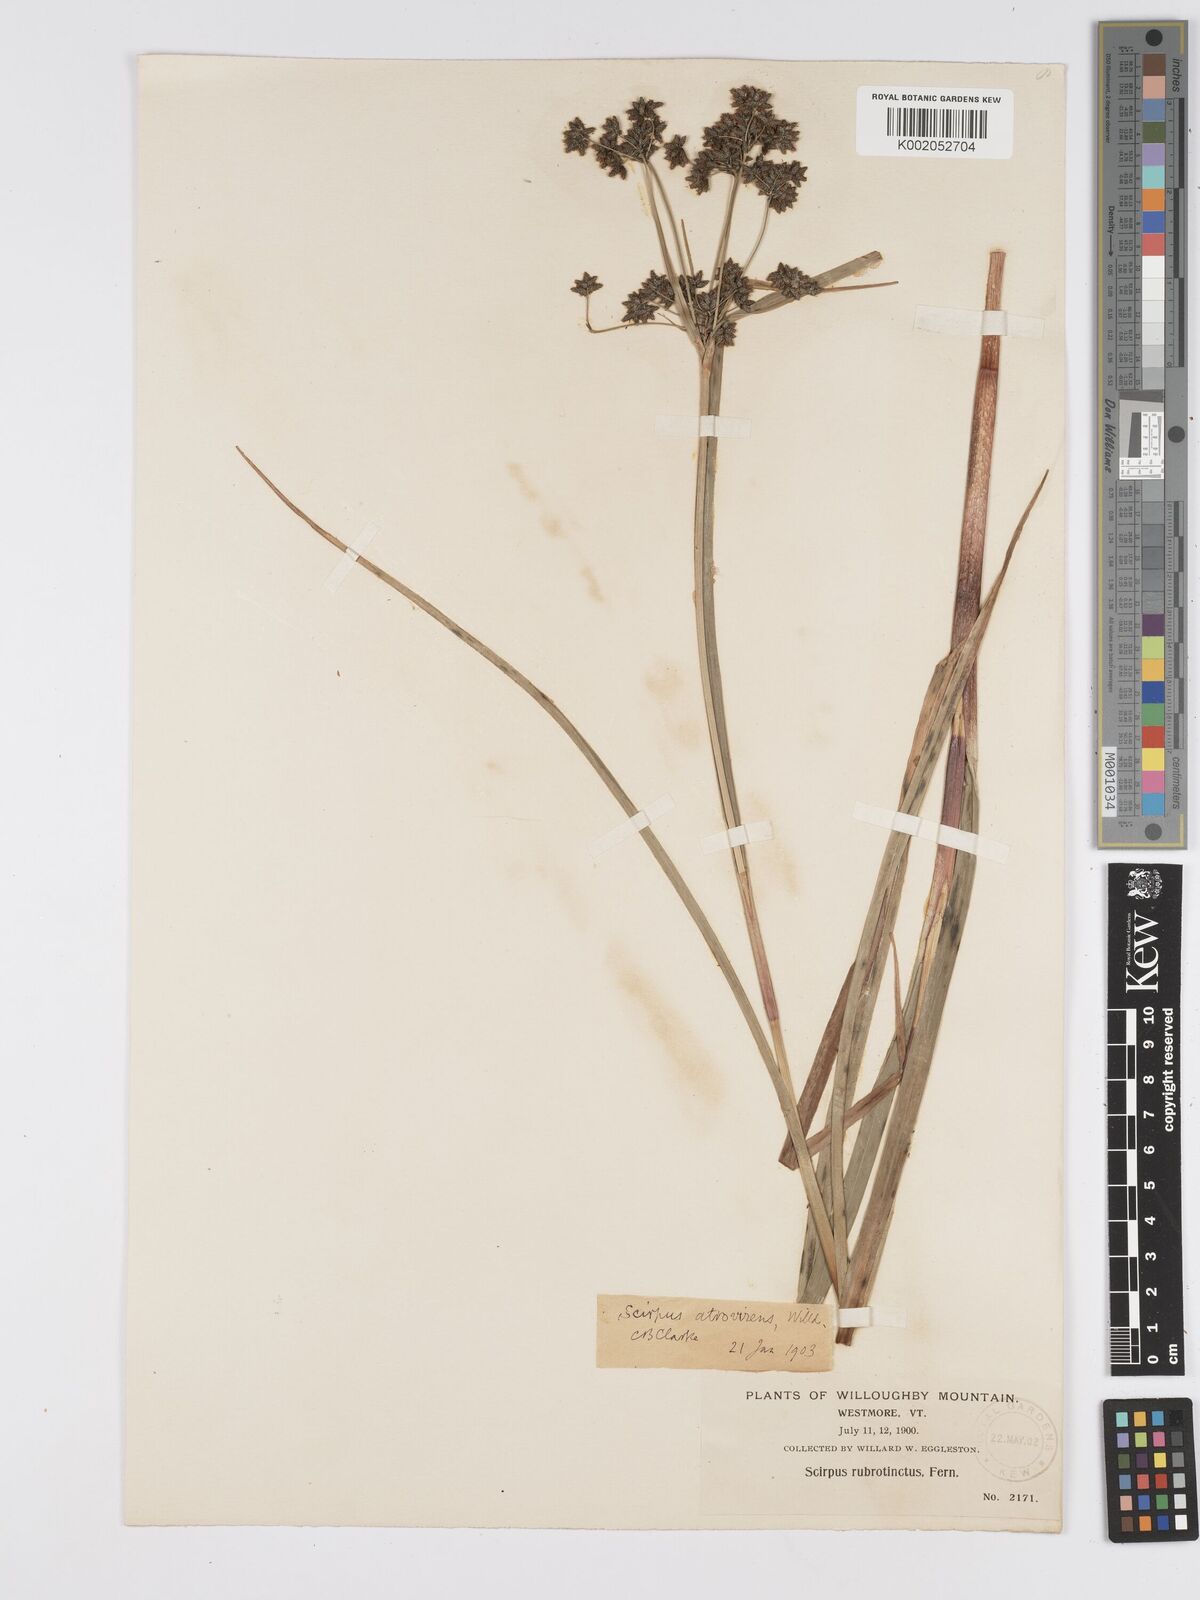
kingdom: Plantae
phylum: Tracheophyta
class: Liliopsida
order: Poales
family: Cyperaceae
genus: Scirpus
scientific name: Scirpus atrovirens
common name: Black bulrush
